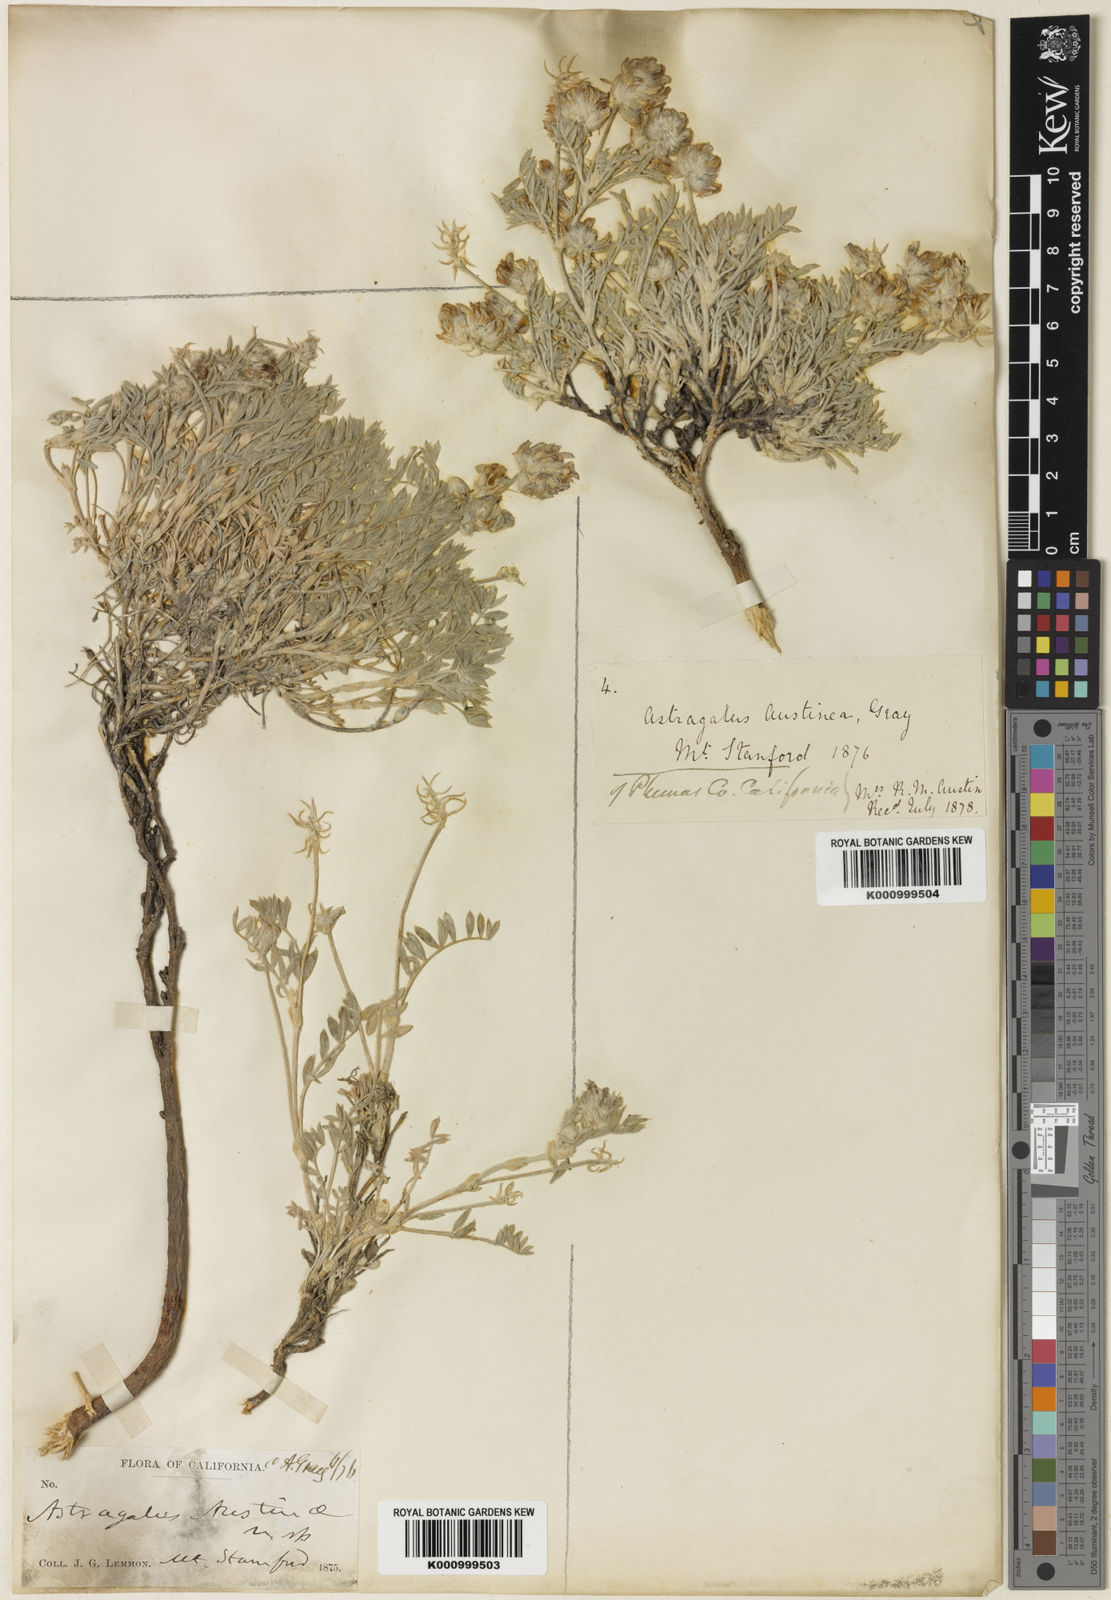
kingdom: Plantae
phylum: Tracheophyta
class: Magnoliopsida
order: Fabales
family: Fabaceae
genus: Astragalus
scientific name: Astragalus austiniae
